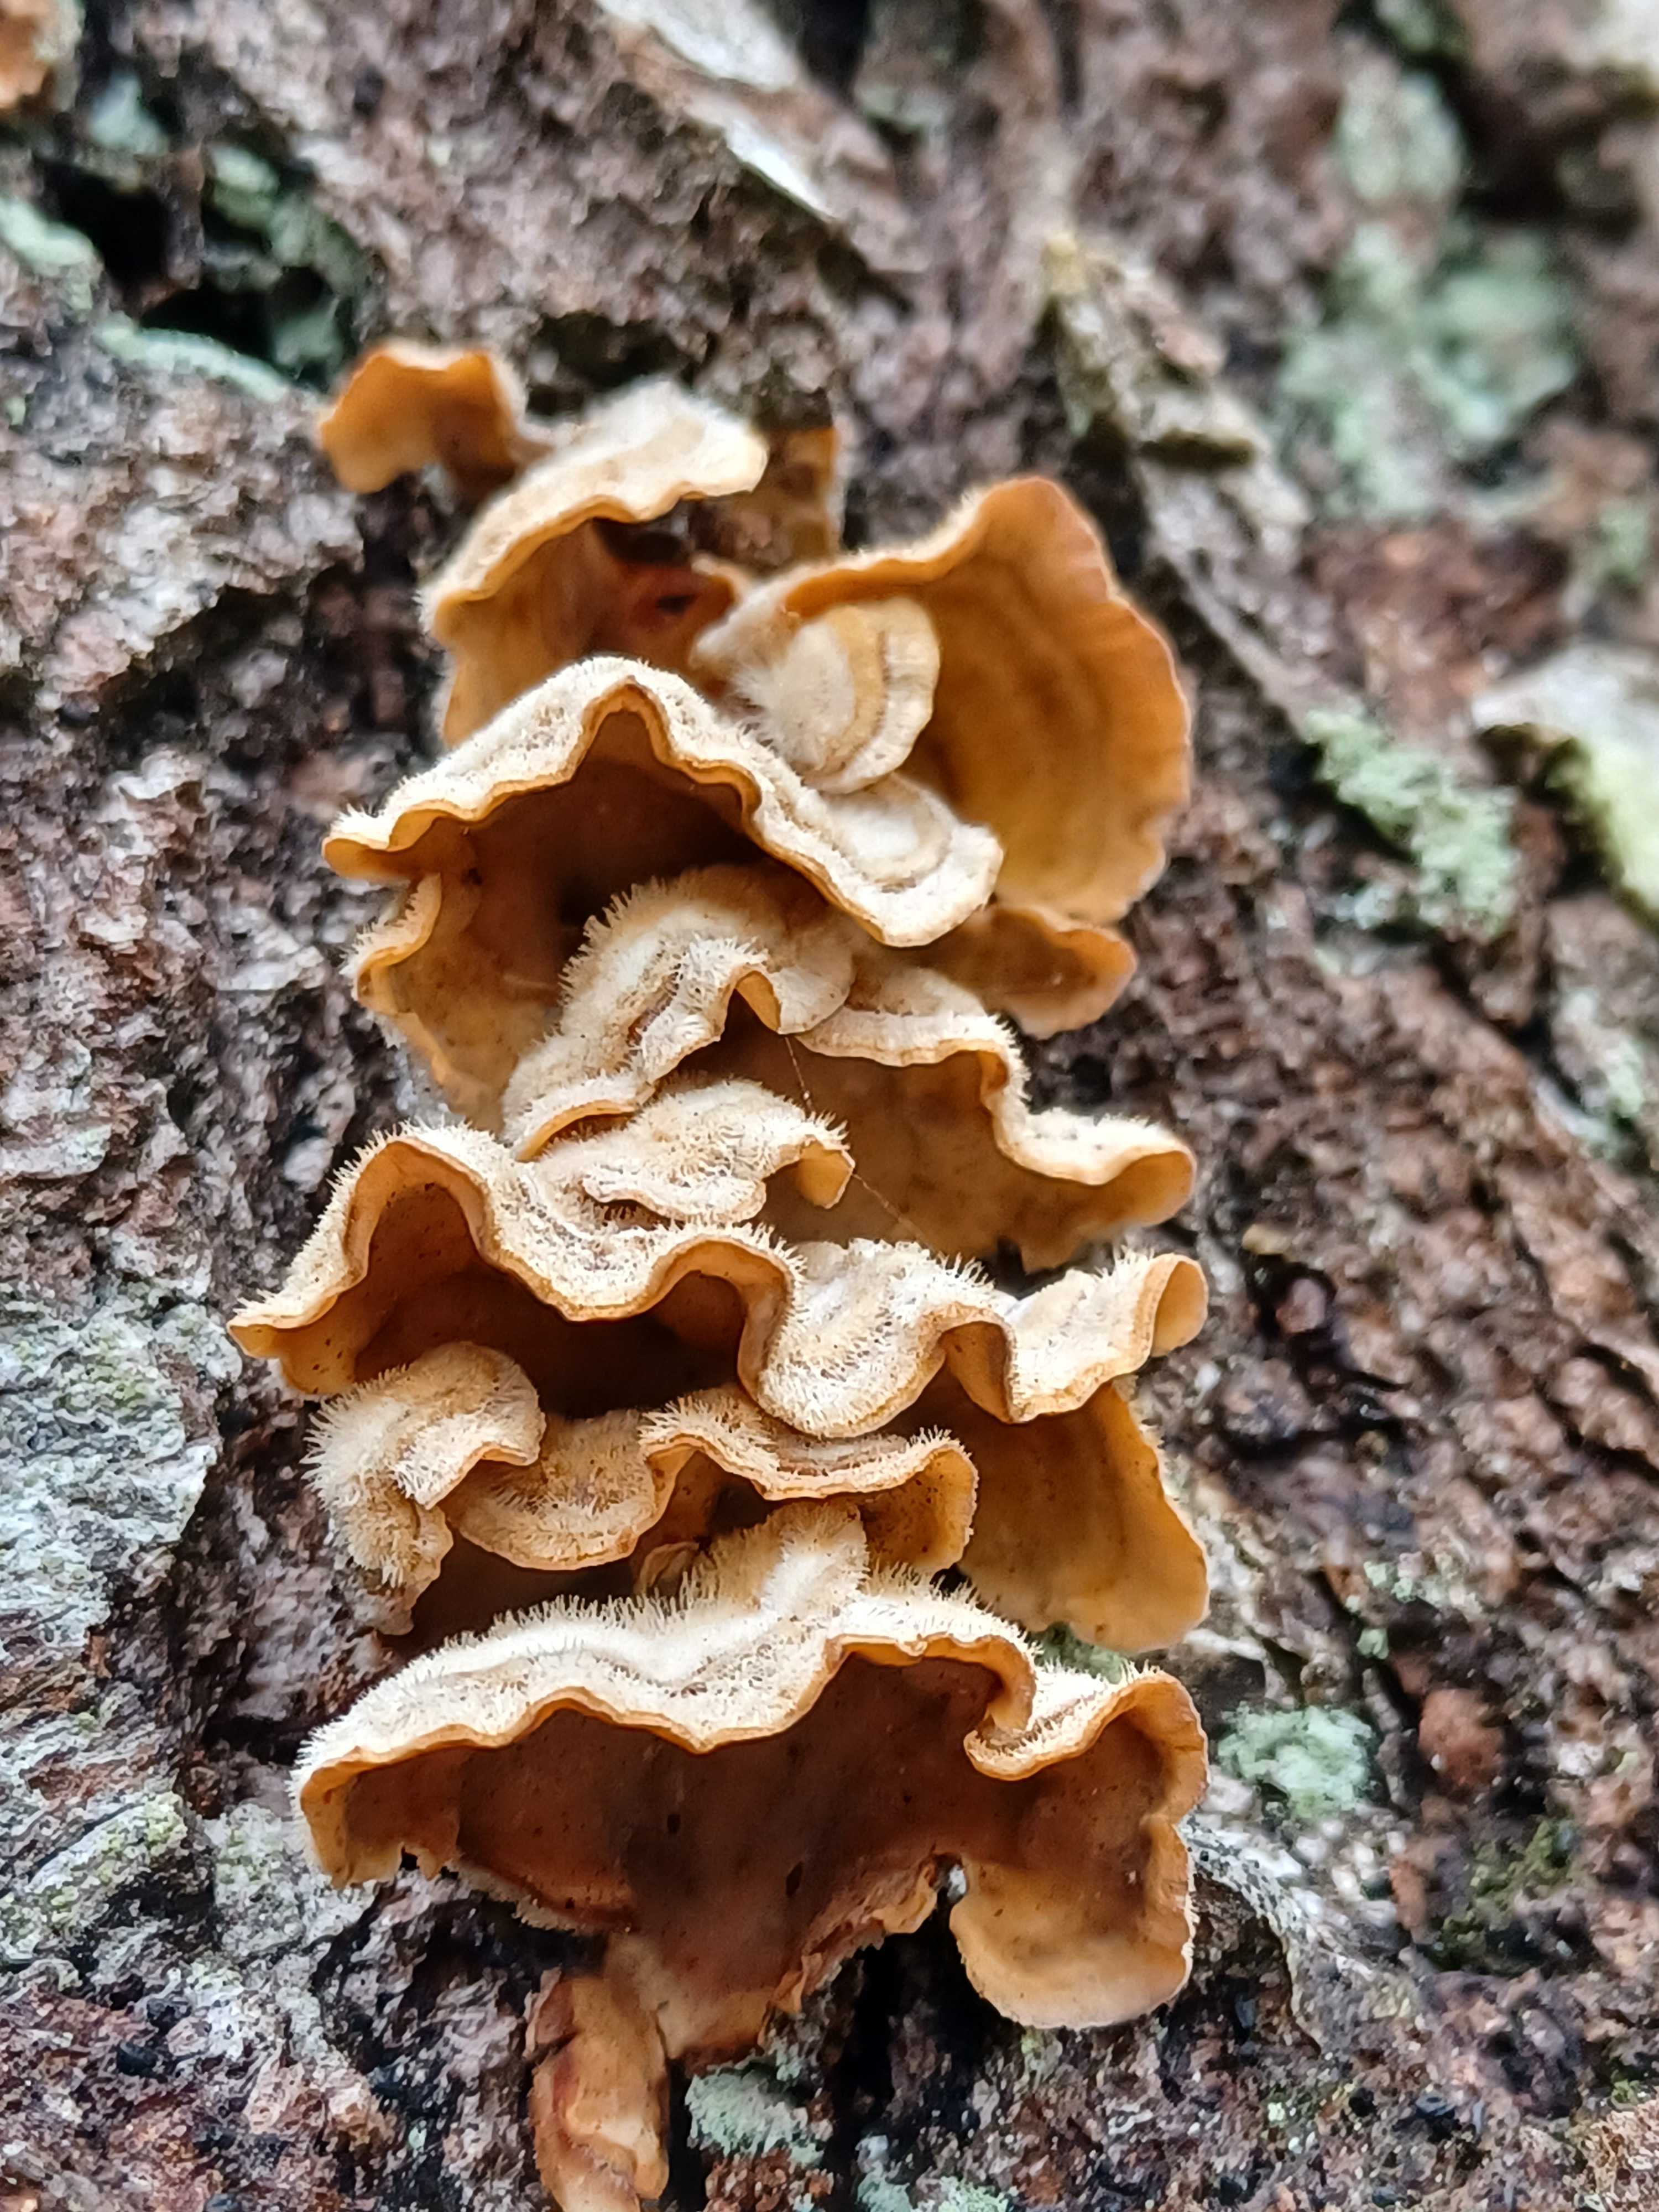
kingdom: Fungi
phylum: Basidiomycota
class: Agaricomycetes
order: Russulales
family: Stereaceae
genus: Stereum
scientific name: Stereum hirsutum
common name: håret lædersvamp
